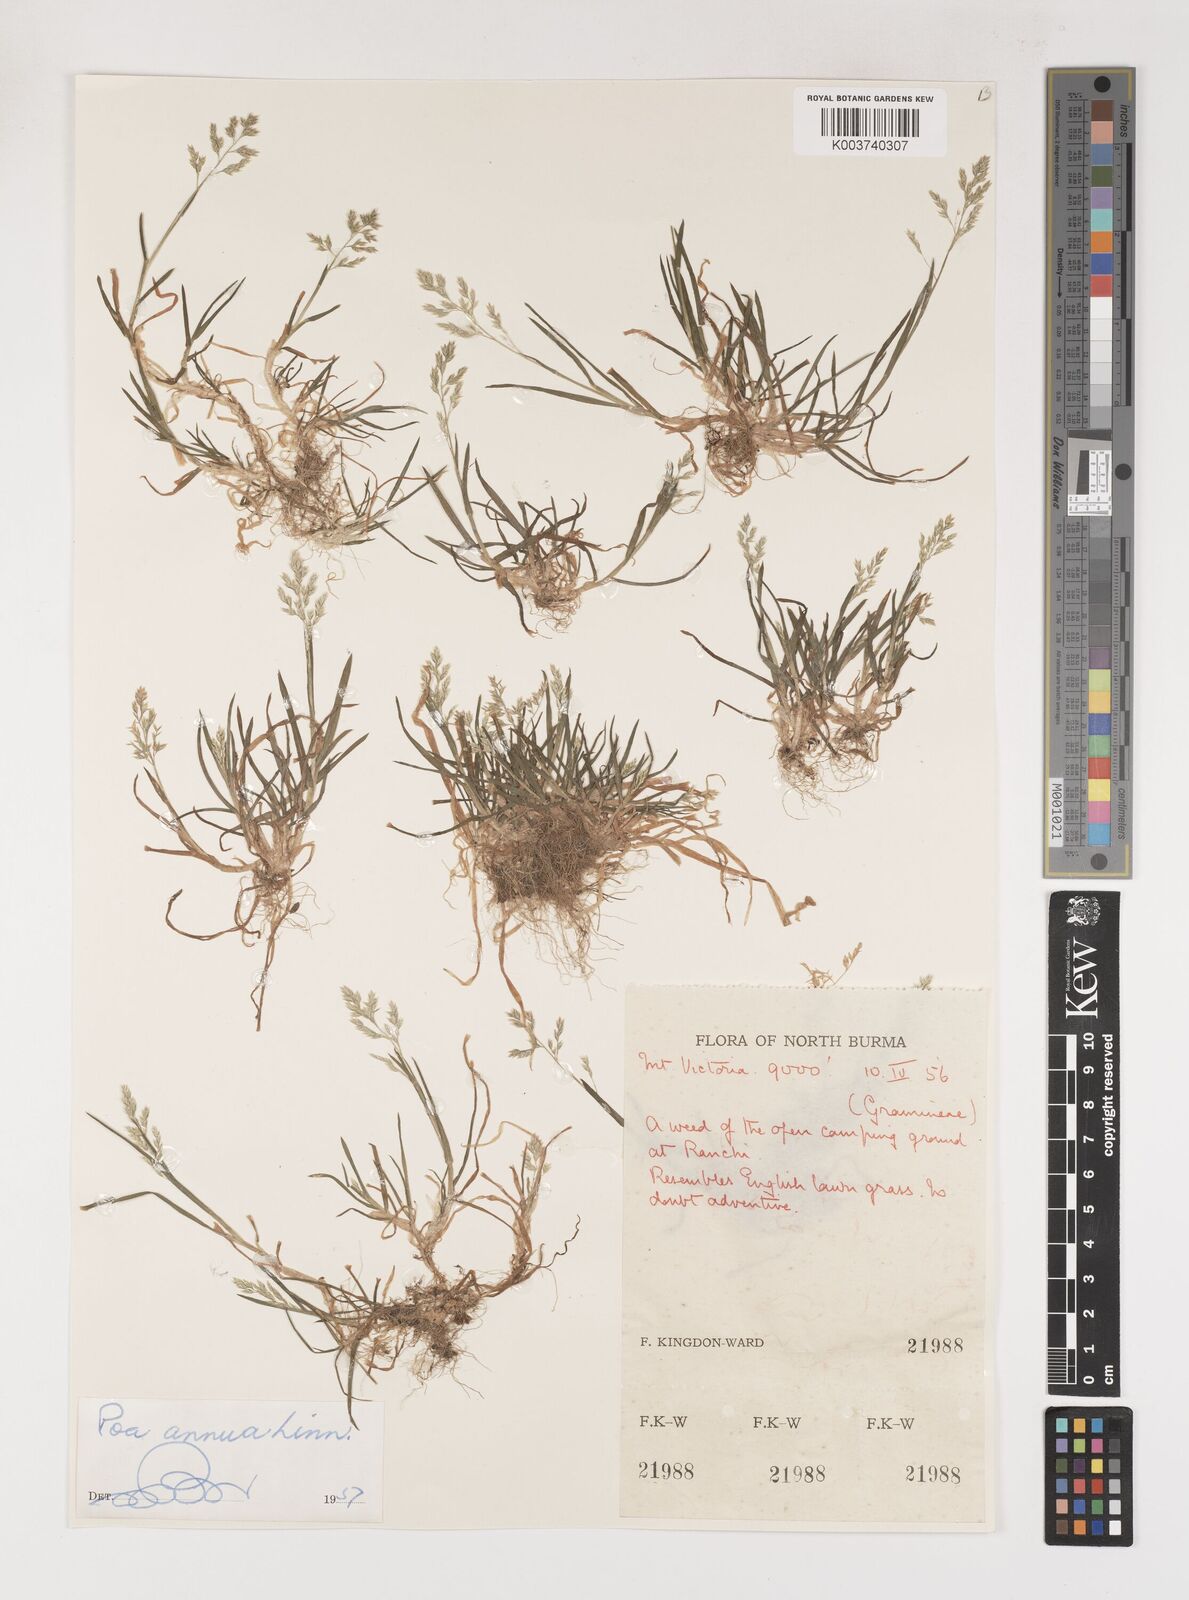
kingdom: Plantae
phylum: Tracheophyta
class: Liliopsida
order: Poales
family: Poaceae
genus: Poa
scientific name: Poa annua
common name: Annual bluegrass
